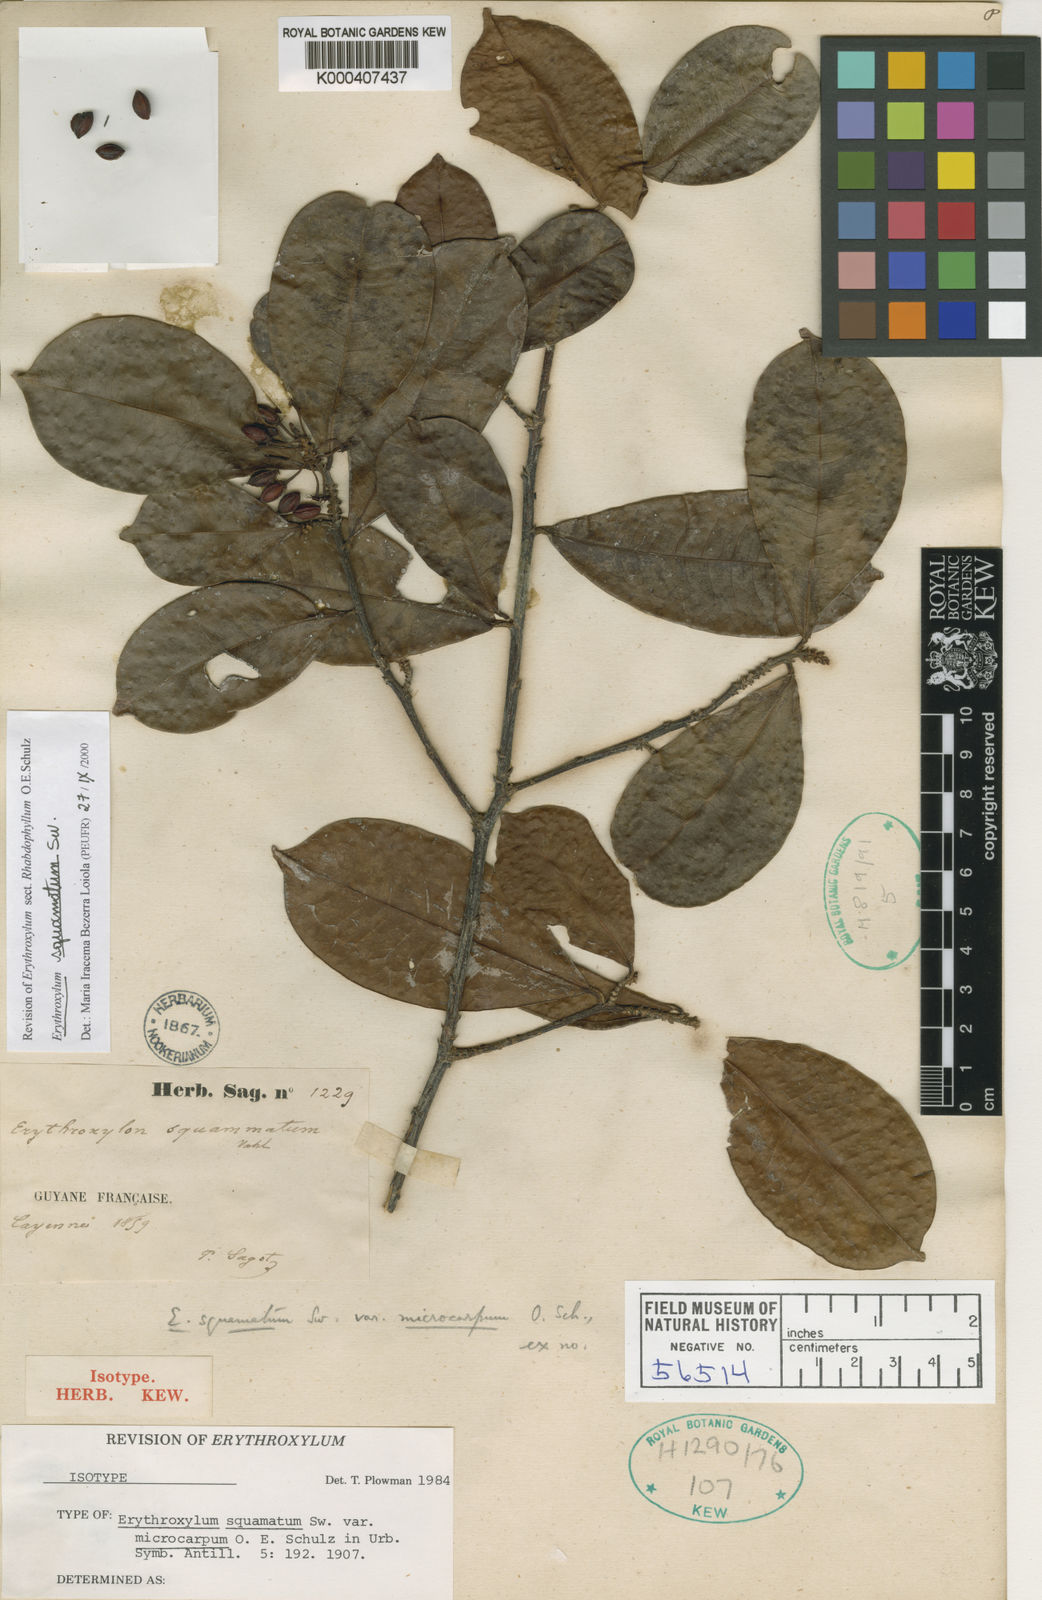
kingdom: Plantae
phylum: Tracheophyta
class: Magnoliopsida
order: Malpighiales
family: Erythroxylaceae
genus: Erythroxylum
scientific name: Erythroxylum squamatum
